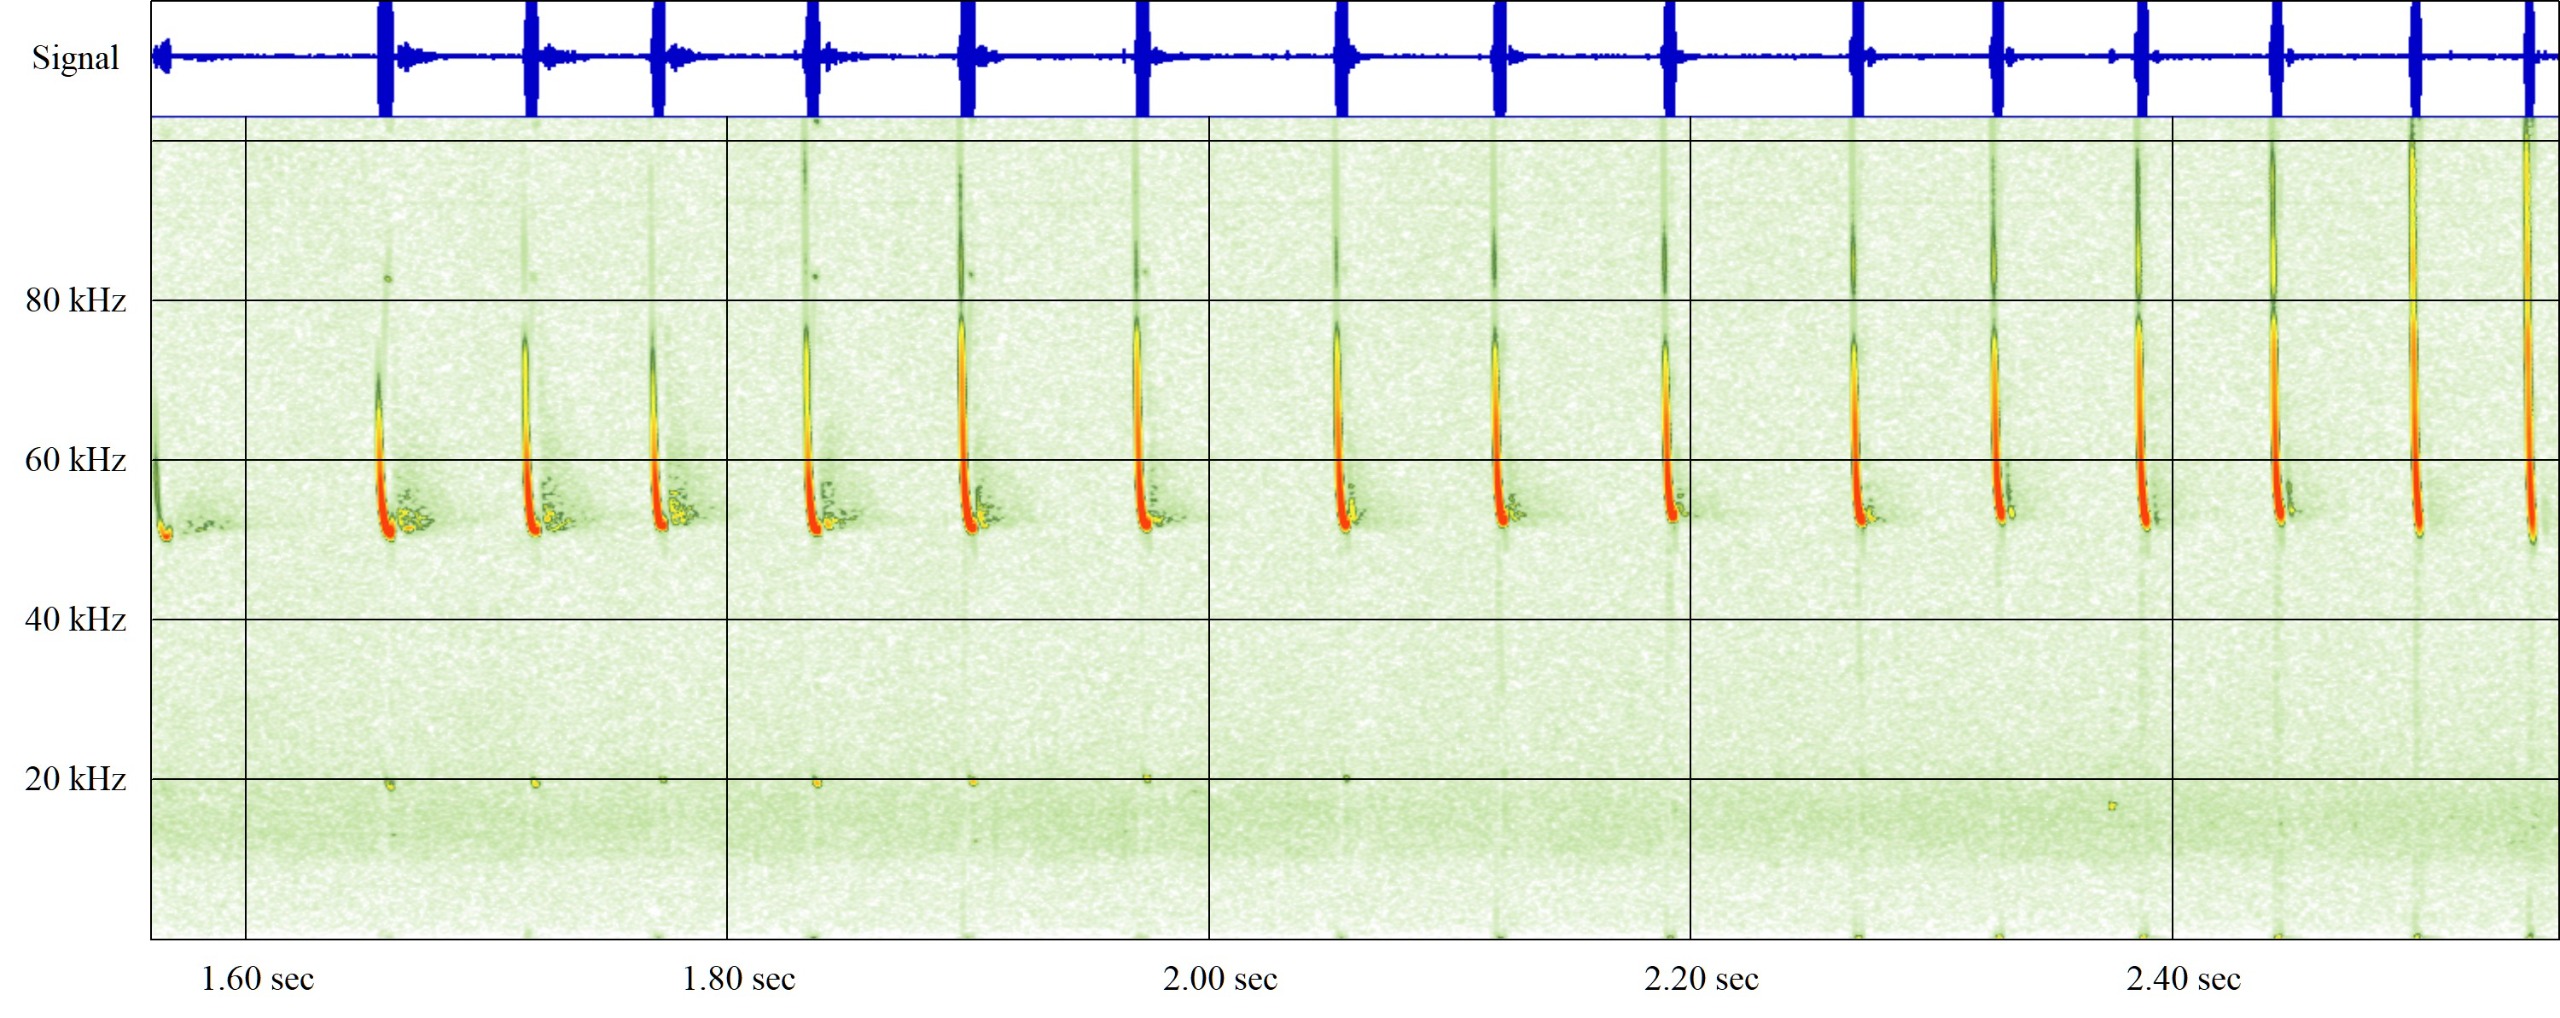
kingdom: Animalia
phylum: Chordata
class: Mammalia
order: Chiroptera
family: Vespertilionidae
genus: Pipistrellus
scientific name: Pipistrellus pygmaeus
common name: Dværgflagermus
